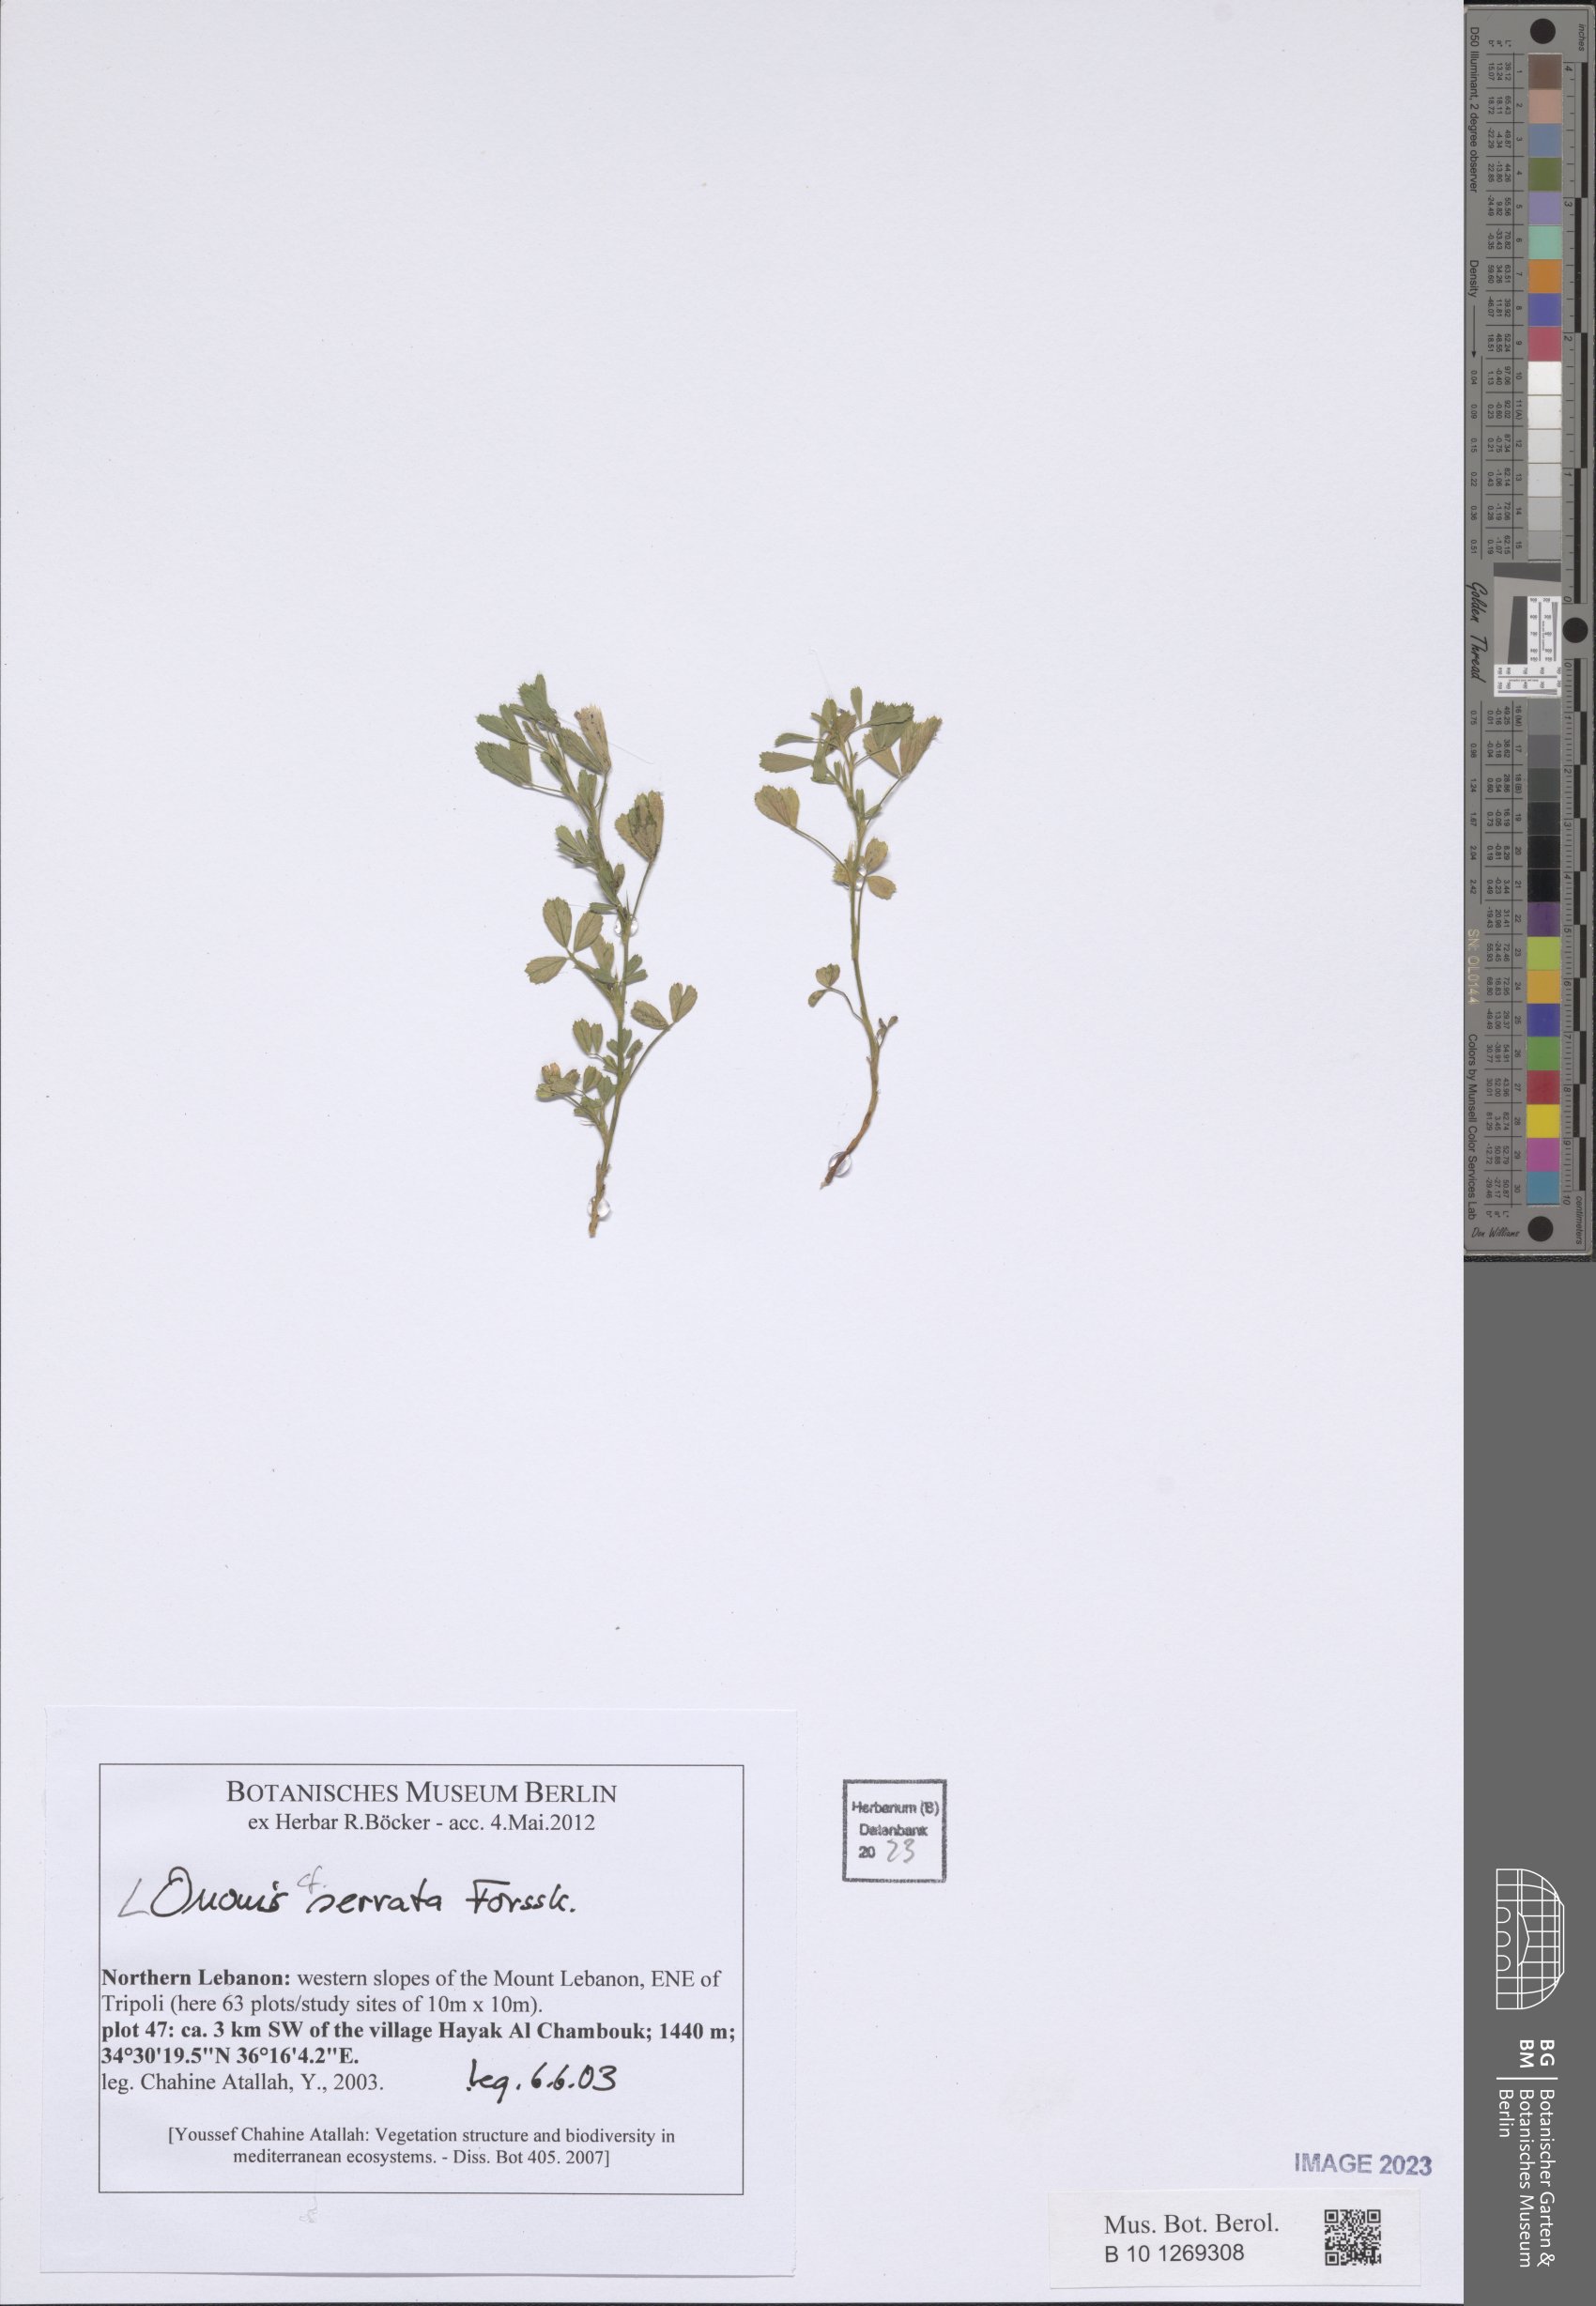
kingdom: Plantae
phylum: Tracheophyta
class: Magnoliopsida
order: Fabales
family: Fabaceae
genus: Ononis
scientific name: Ononis serrata
